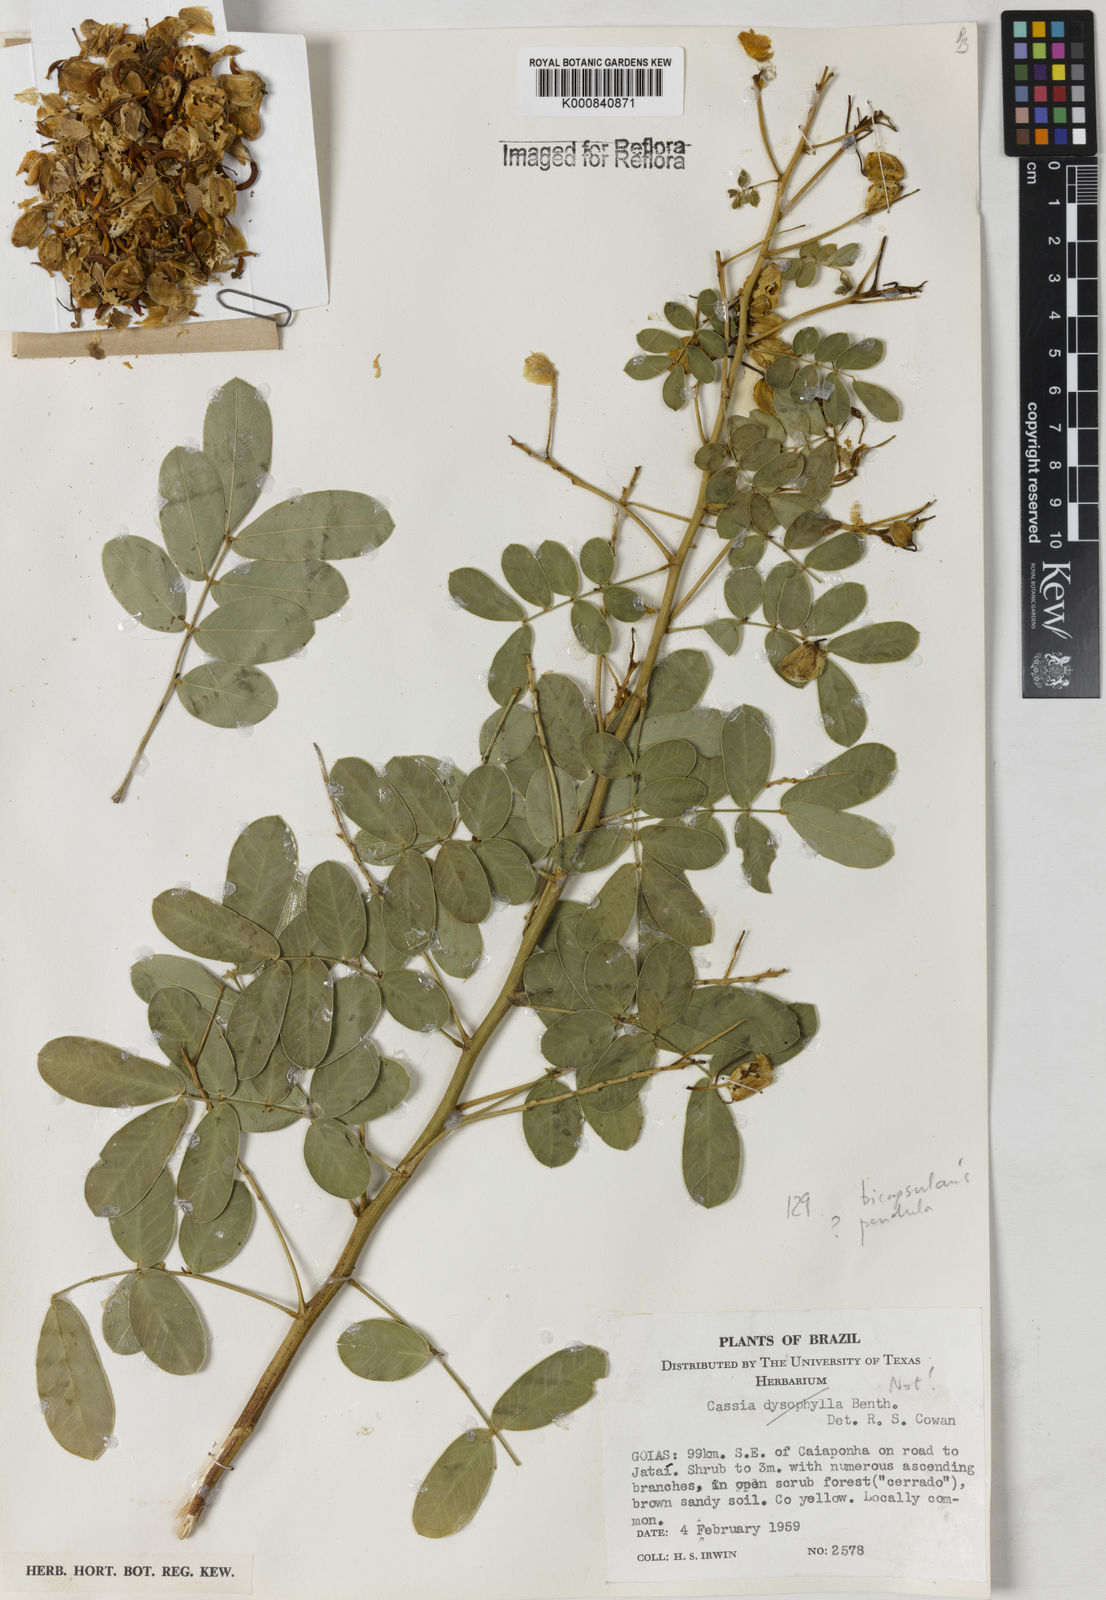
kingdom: Plantae
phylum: Tracheophyta
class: Magnoliopsida
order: Fabales
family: Fabaceae
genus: Senna
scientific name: Senna bicapsularis
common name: Christmasbush
